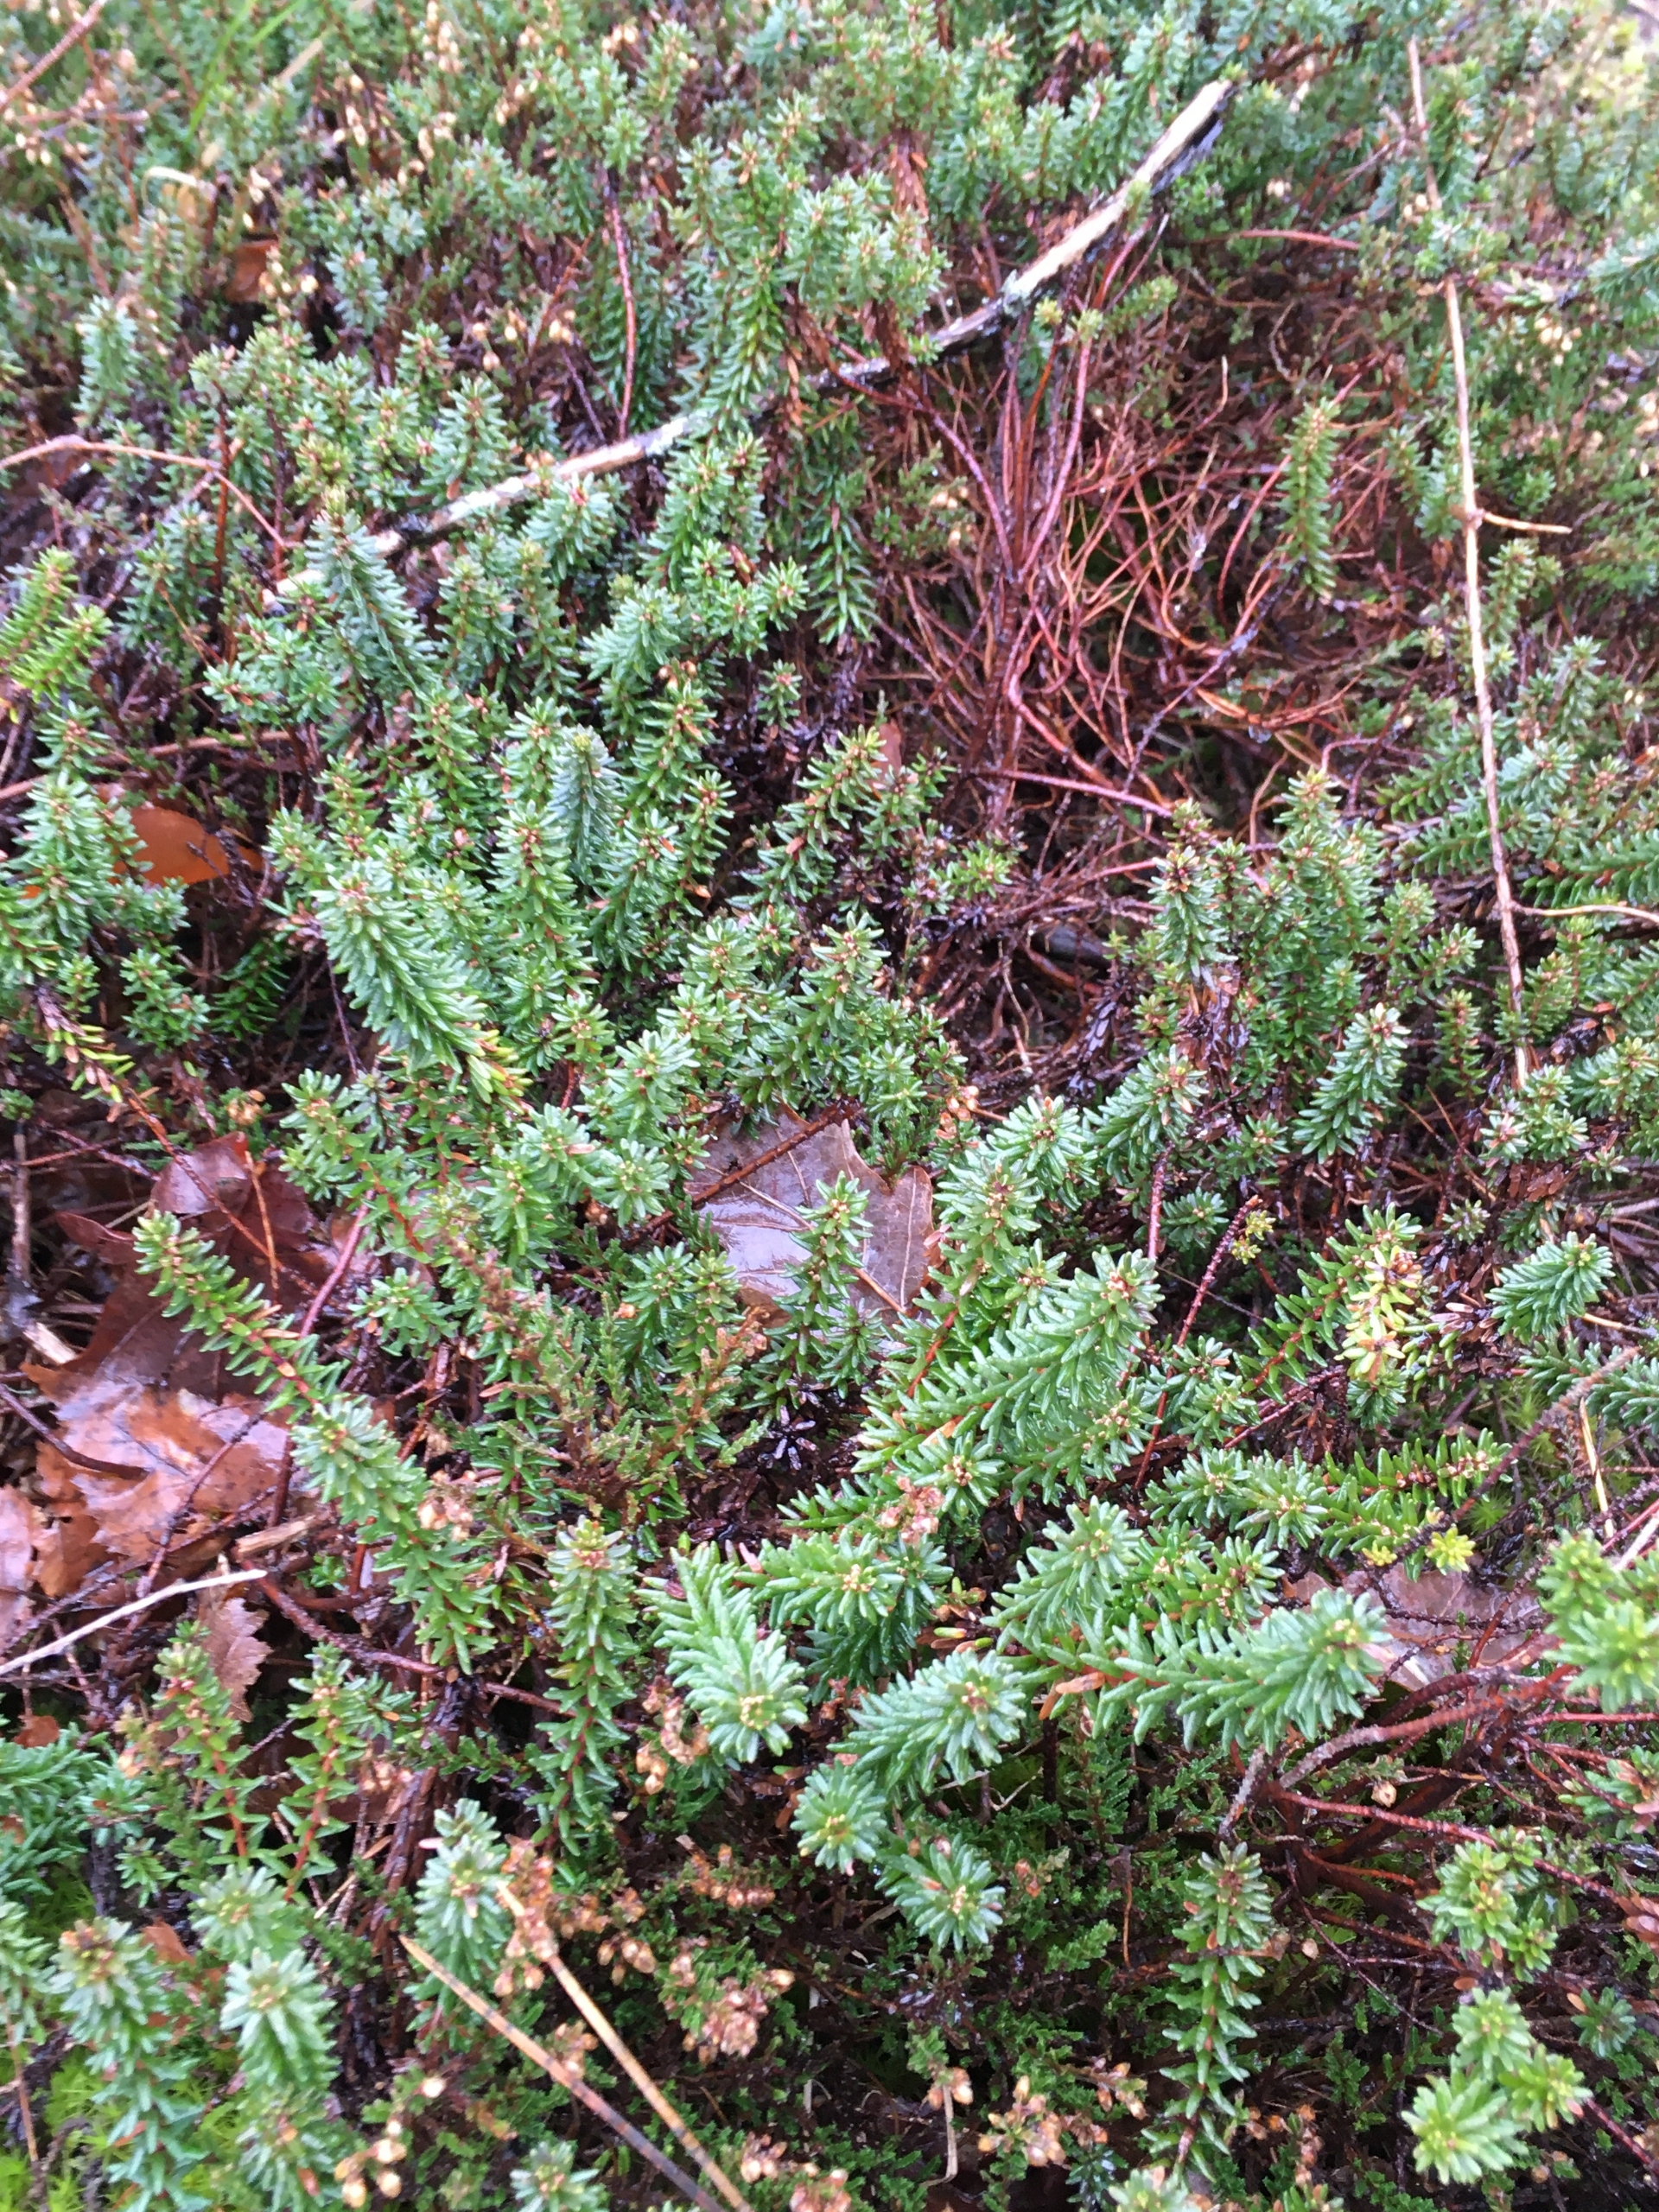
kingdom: Plantae
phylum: Tracheophyta
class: Magnoliopsida
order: Ericales
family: Ericaceae
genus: Empetrum
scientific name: Empetrum nigrum
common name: Revling
